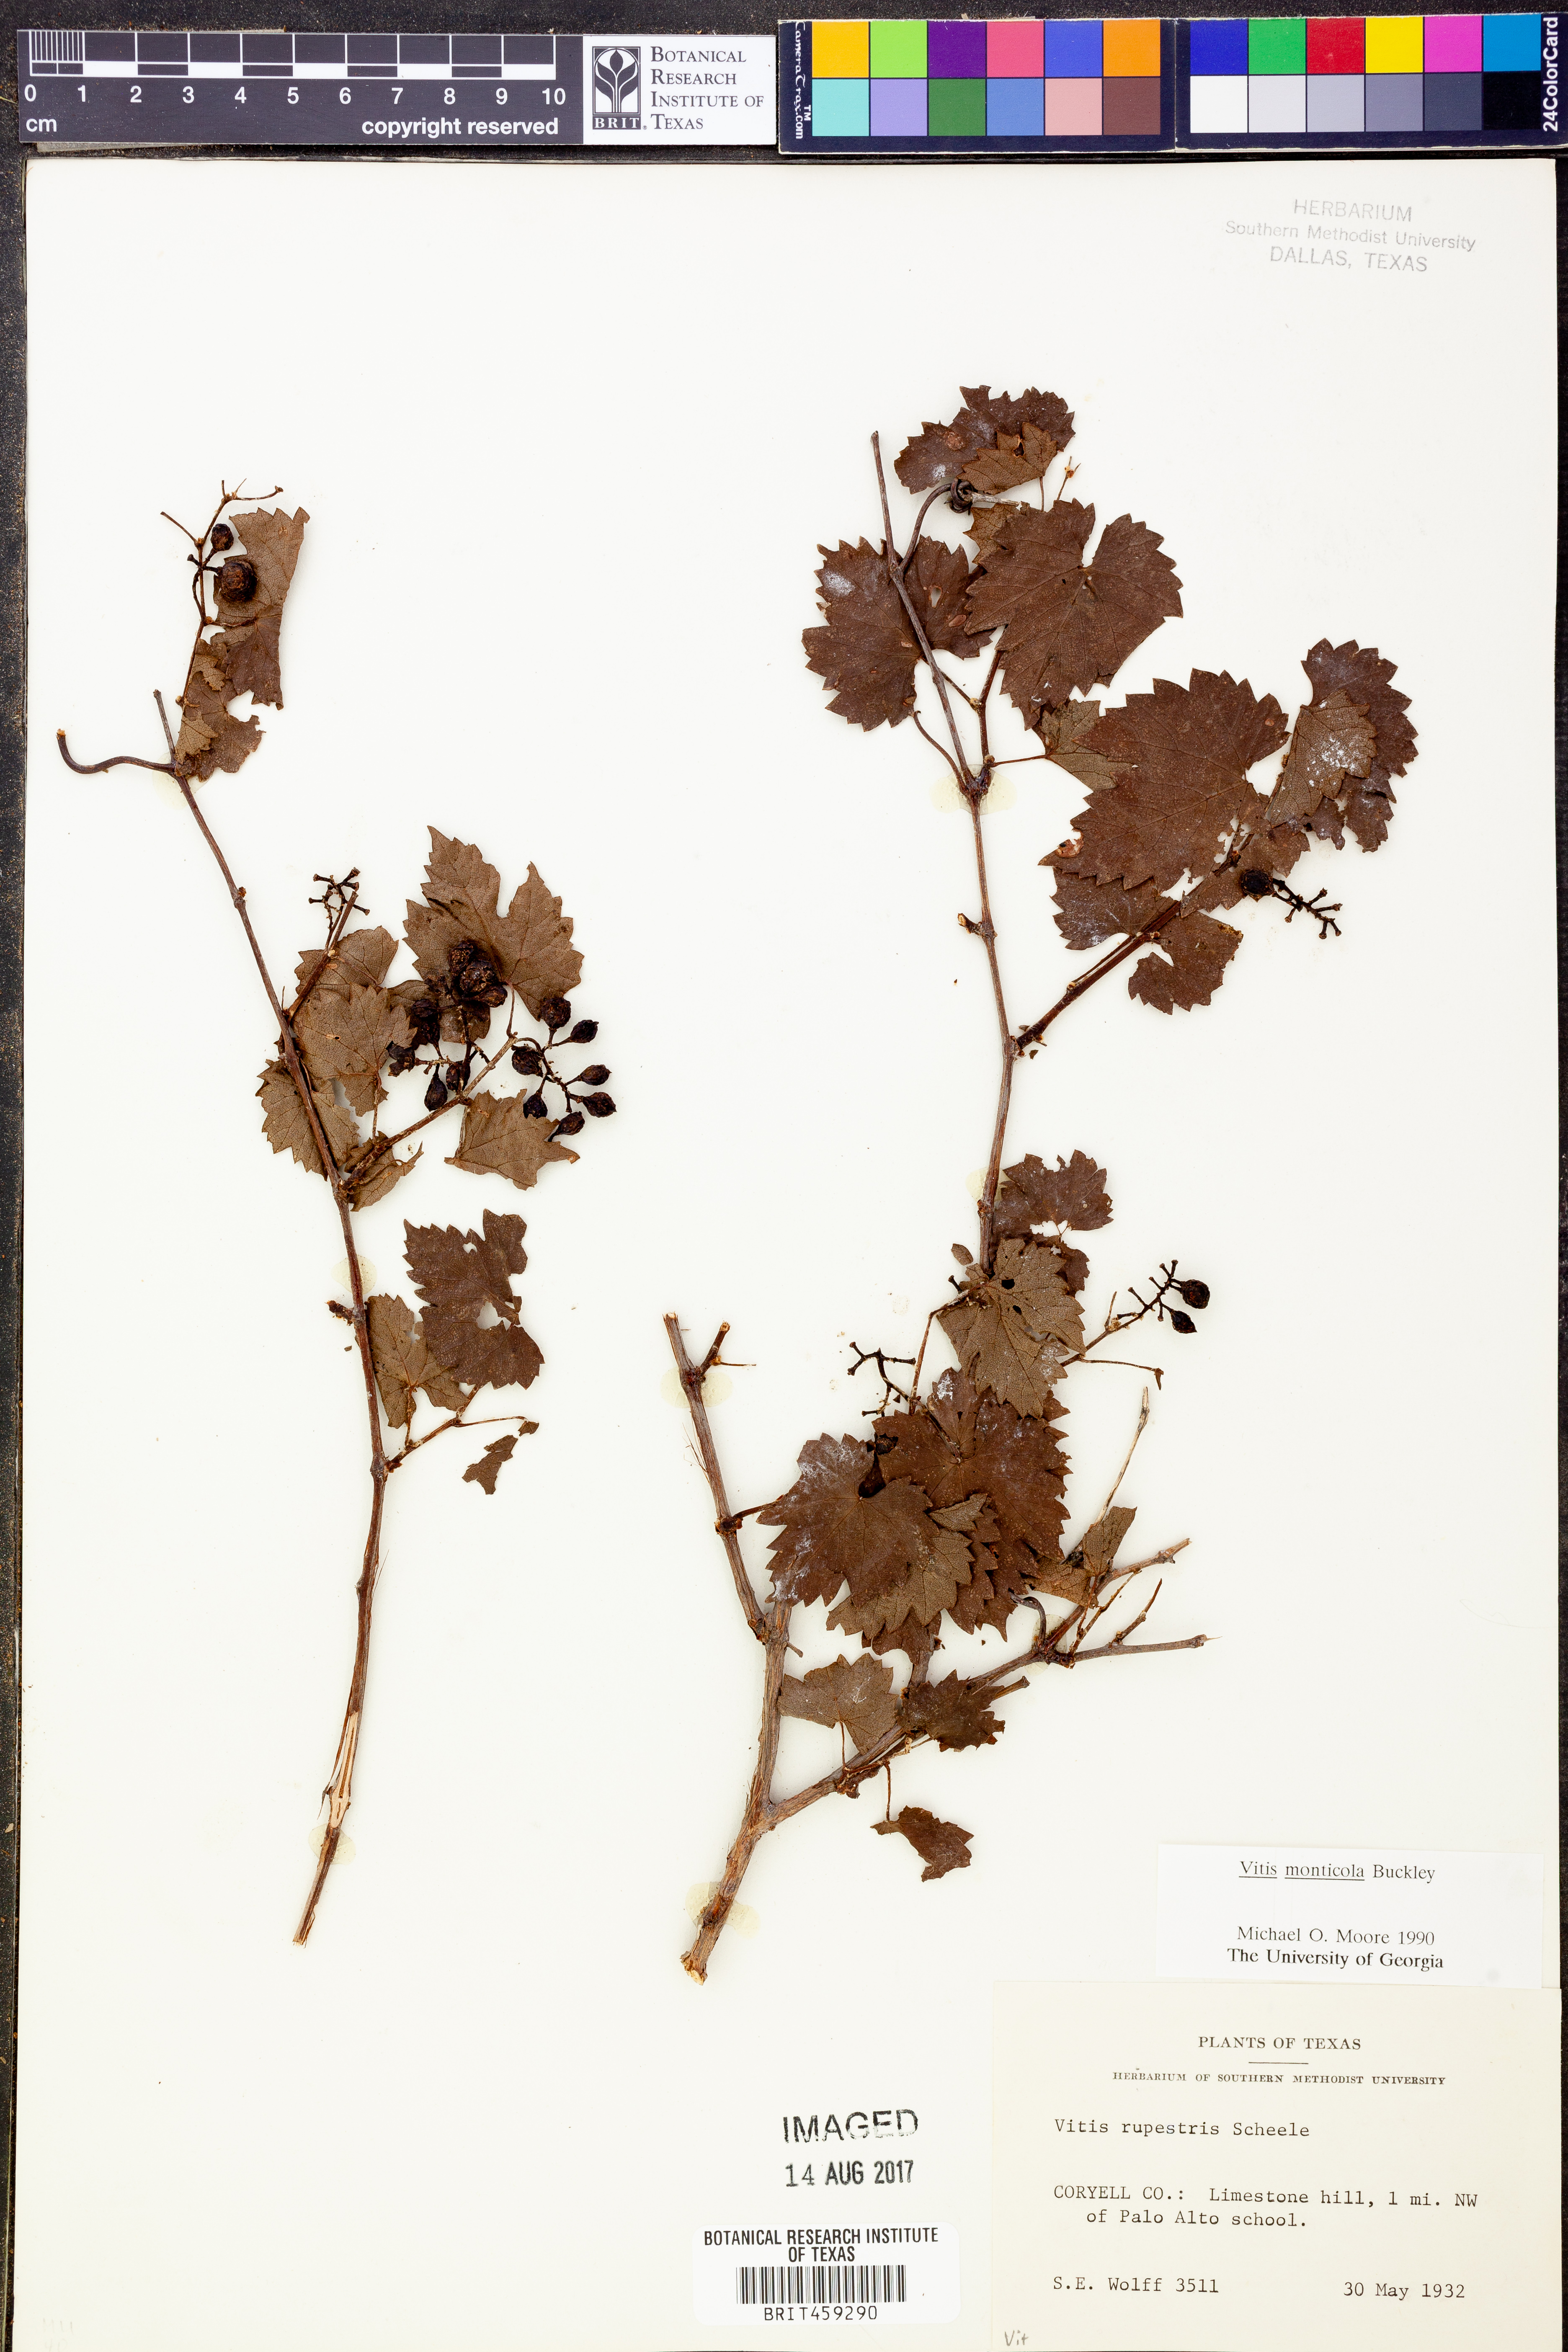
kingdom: Plantae
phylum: Tracheophyta
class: Magnoliopsida
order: Vitales
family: Vitaceae
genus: Vitis
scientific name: Vitis monticola
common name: Mountain grape
